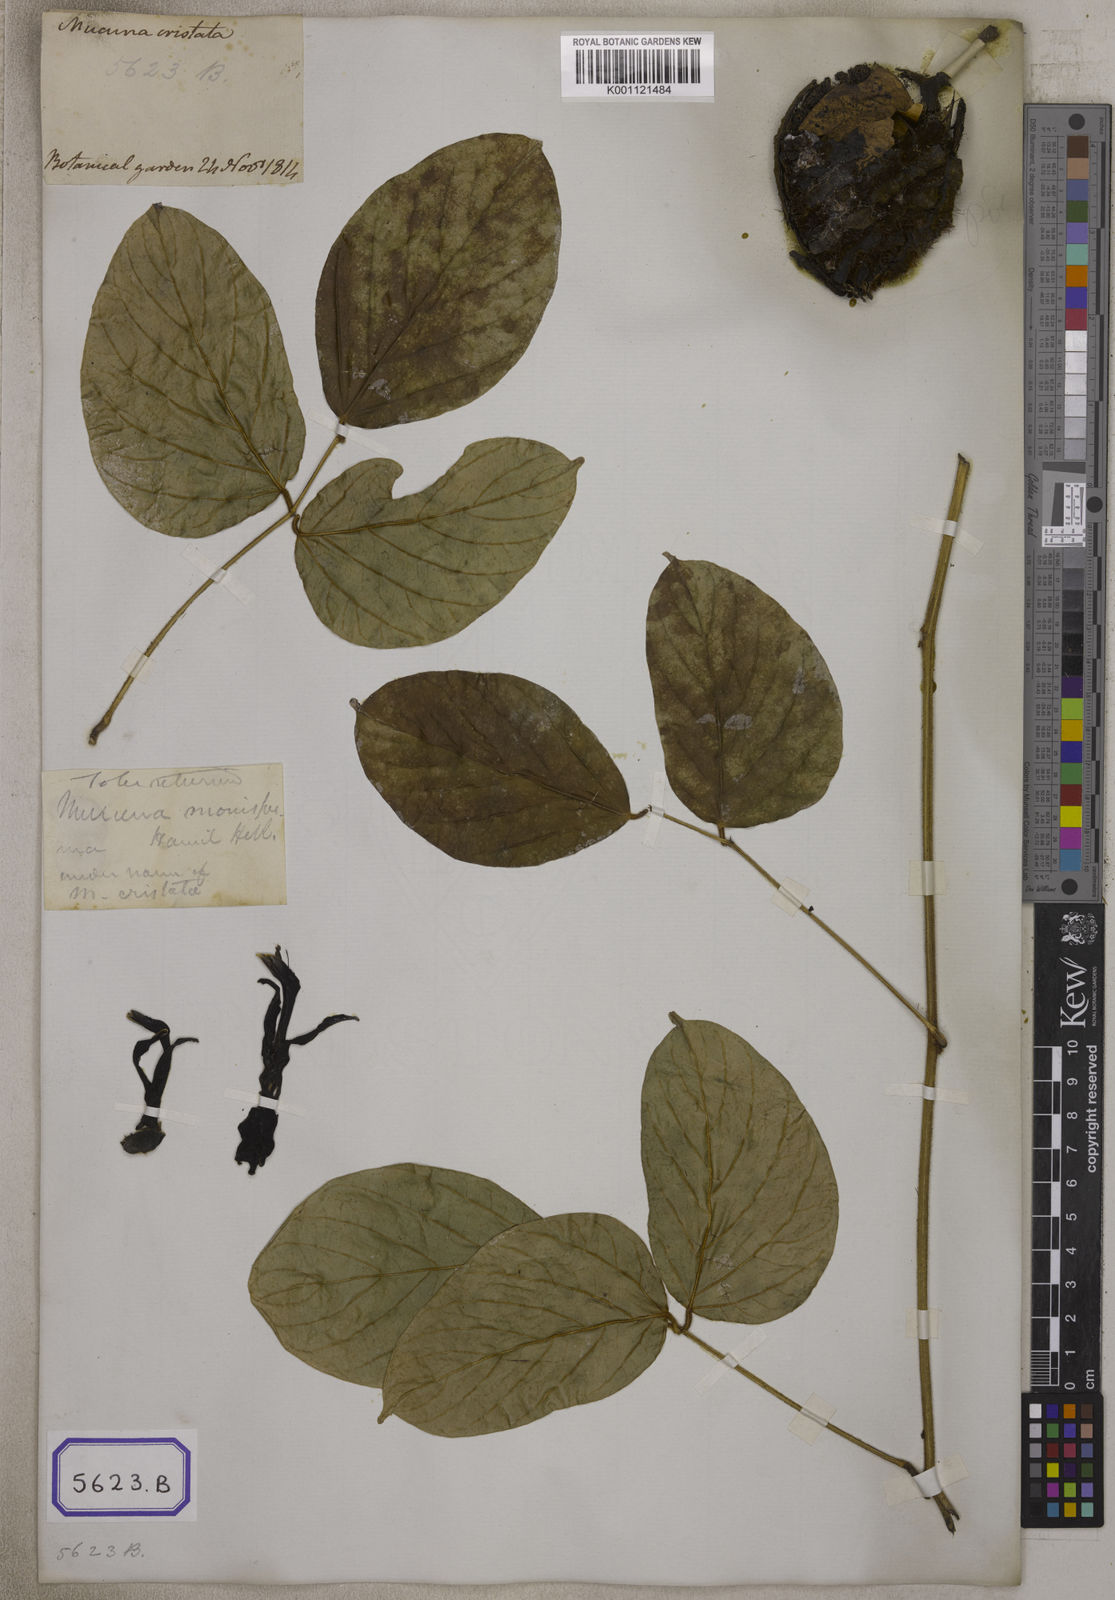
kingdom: Plantae
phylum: Tracheophyta
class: Magnoliopsida
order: Fabales
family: Fabaceae
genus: Mucuna
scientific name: Mucuna
